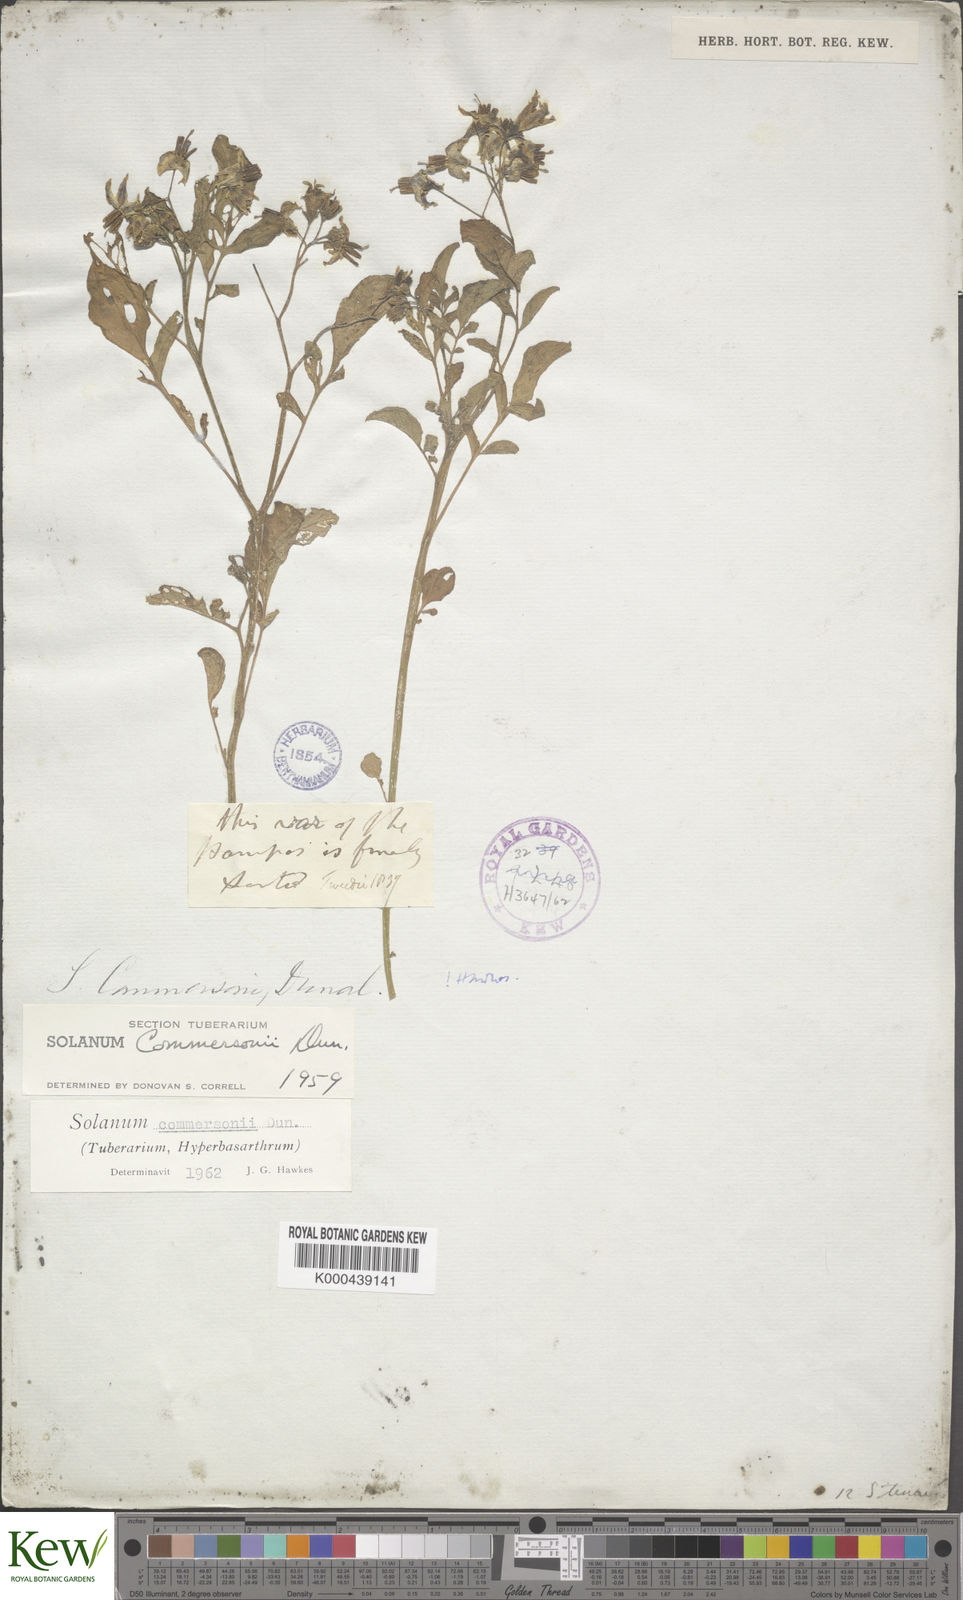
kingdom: Plantae
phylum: Tracheophyta
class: Magnoliopsida
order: Solanales
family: Solanaceae
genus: Solanum
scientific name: Solanum commersonii
